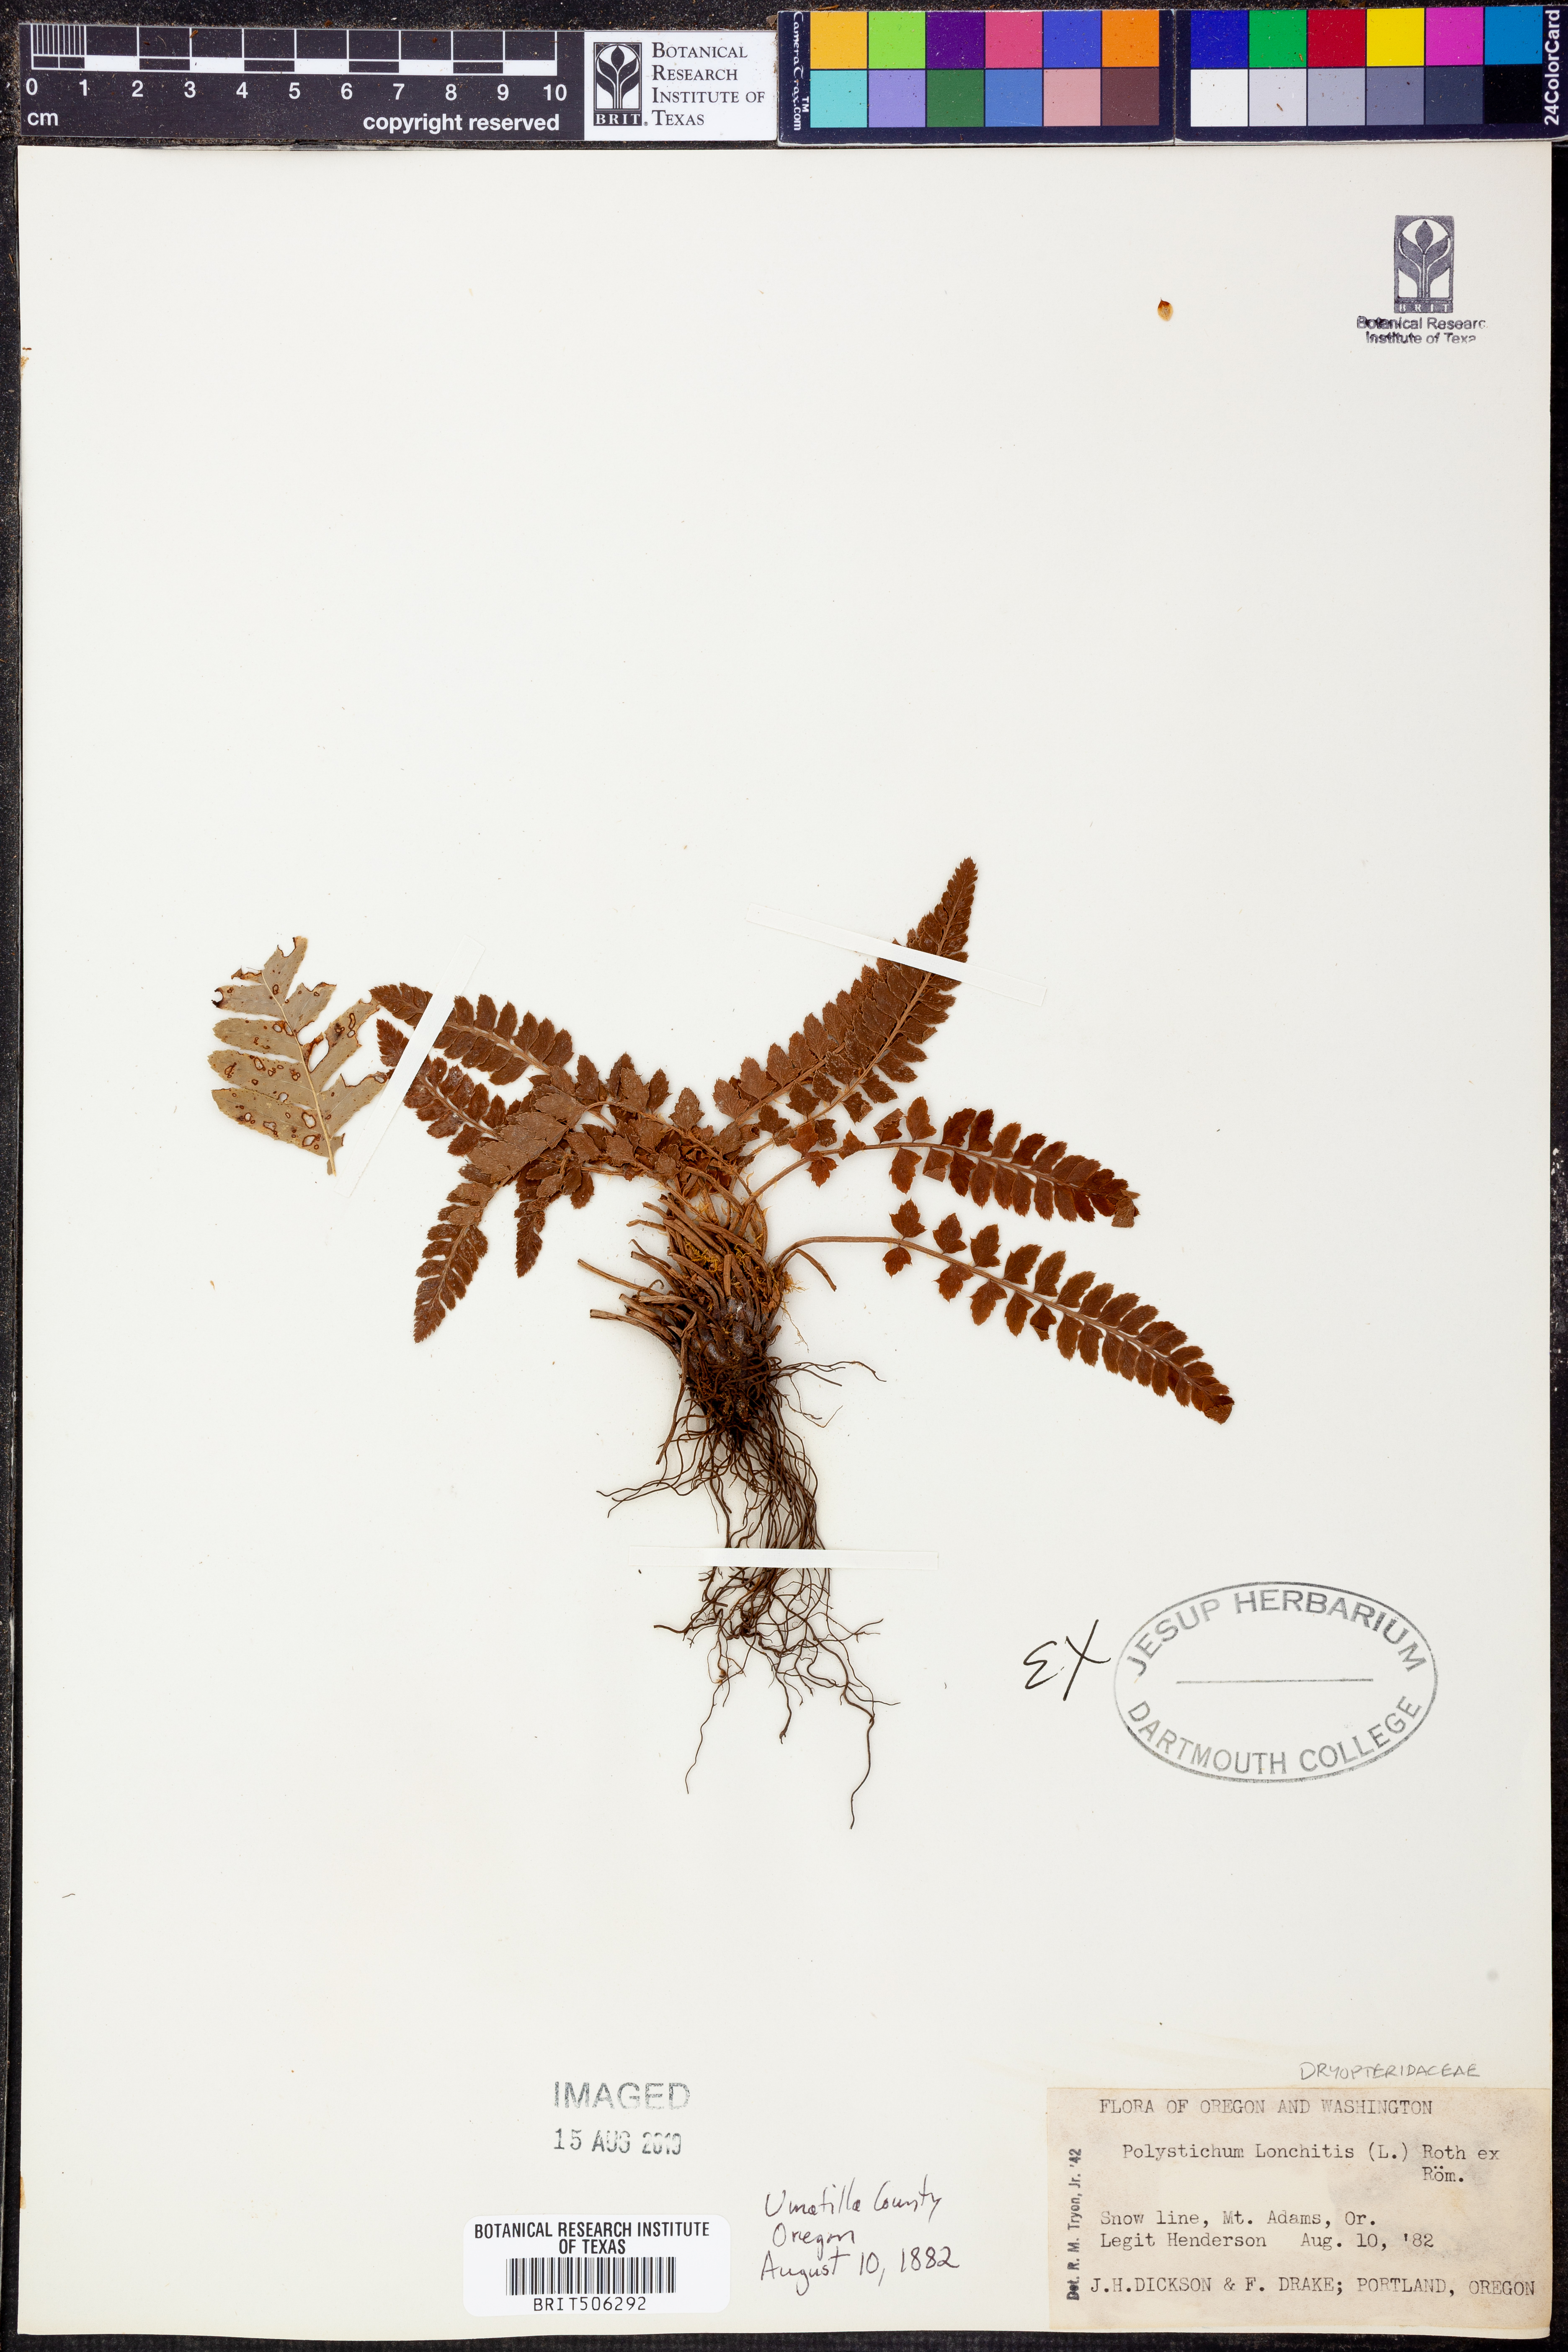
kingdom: Plantae
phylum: Tracheophyta
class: Polypodiopsida
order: Polypodiales
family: Dryopteridaceae
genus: Polystichum
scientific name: Polystichum lonchitis
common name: Holly fern
